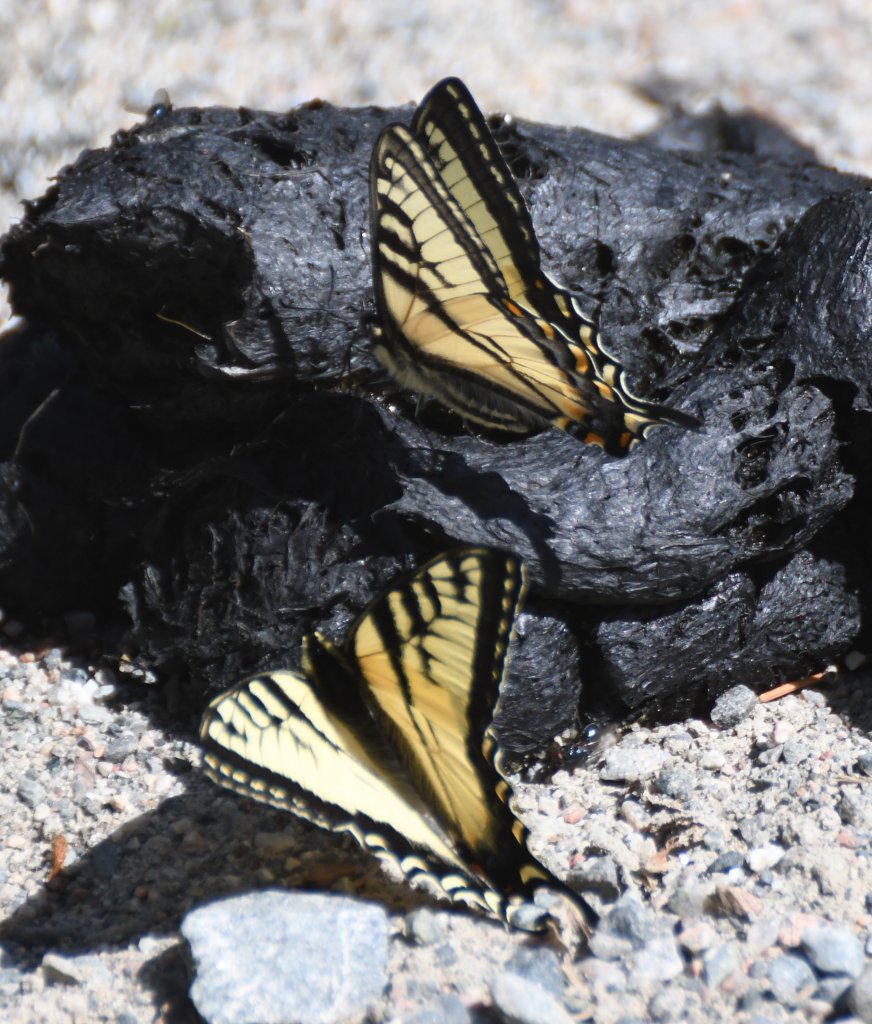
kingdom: Animalia
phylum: Arthropoda
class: Insecta
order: Lepidoptera
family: Papilionidae
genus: Pterourus
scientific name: Pterourus canadensis
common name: Canadian Tiger Swallowtail
